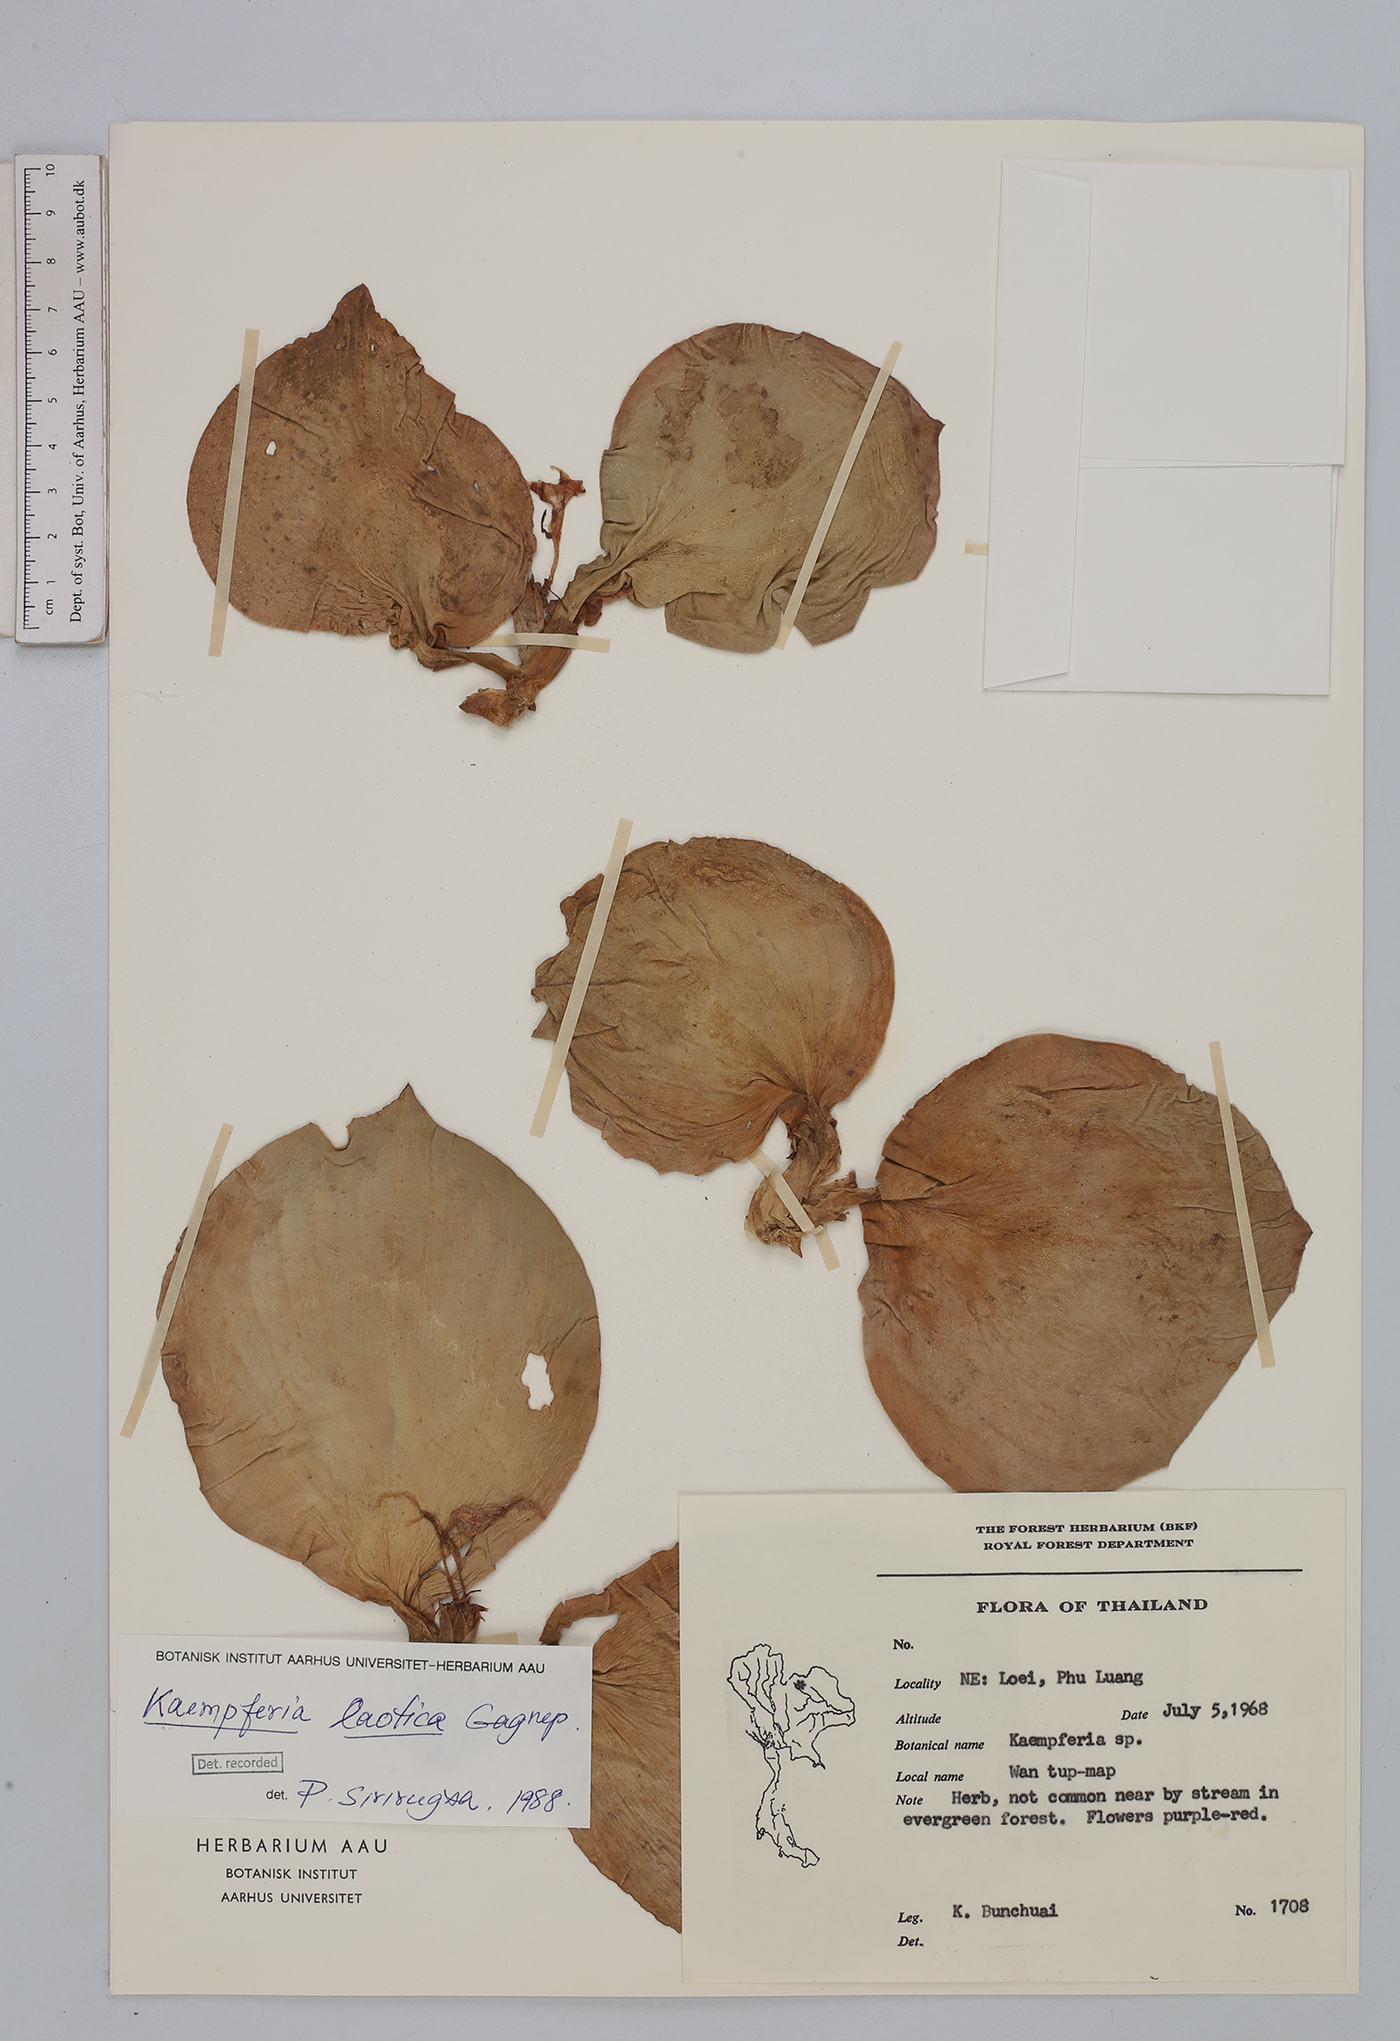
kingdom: Plantae
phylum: Tracheophyta
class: Liliopsida
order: Zingiberales
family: Zingiberaceae
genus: Kaempferia
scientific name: Kaempferia laotica
